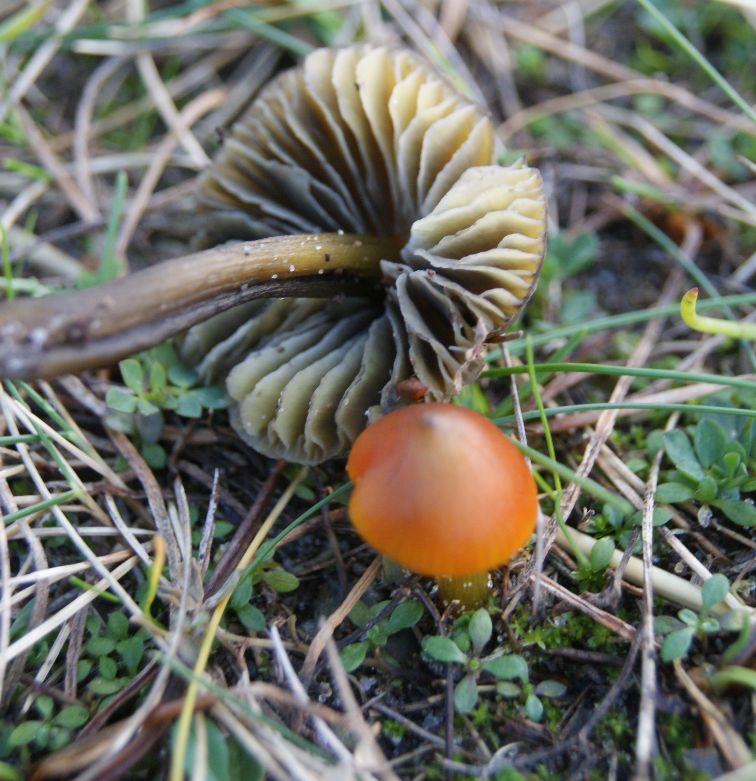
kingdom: Fungi
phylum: Basidiomycota
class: Agaricomycetes
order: Agaricales
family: Hygrophoraceae
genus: Hygrocybe
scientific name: Hygrocybe conica
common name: kegle-vokshat
